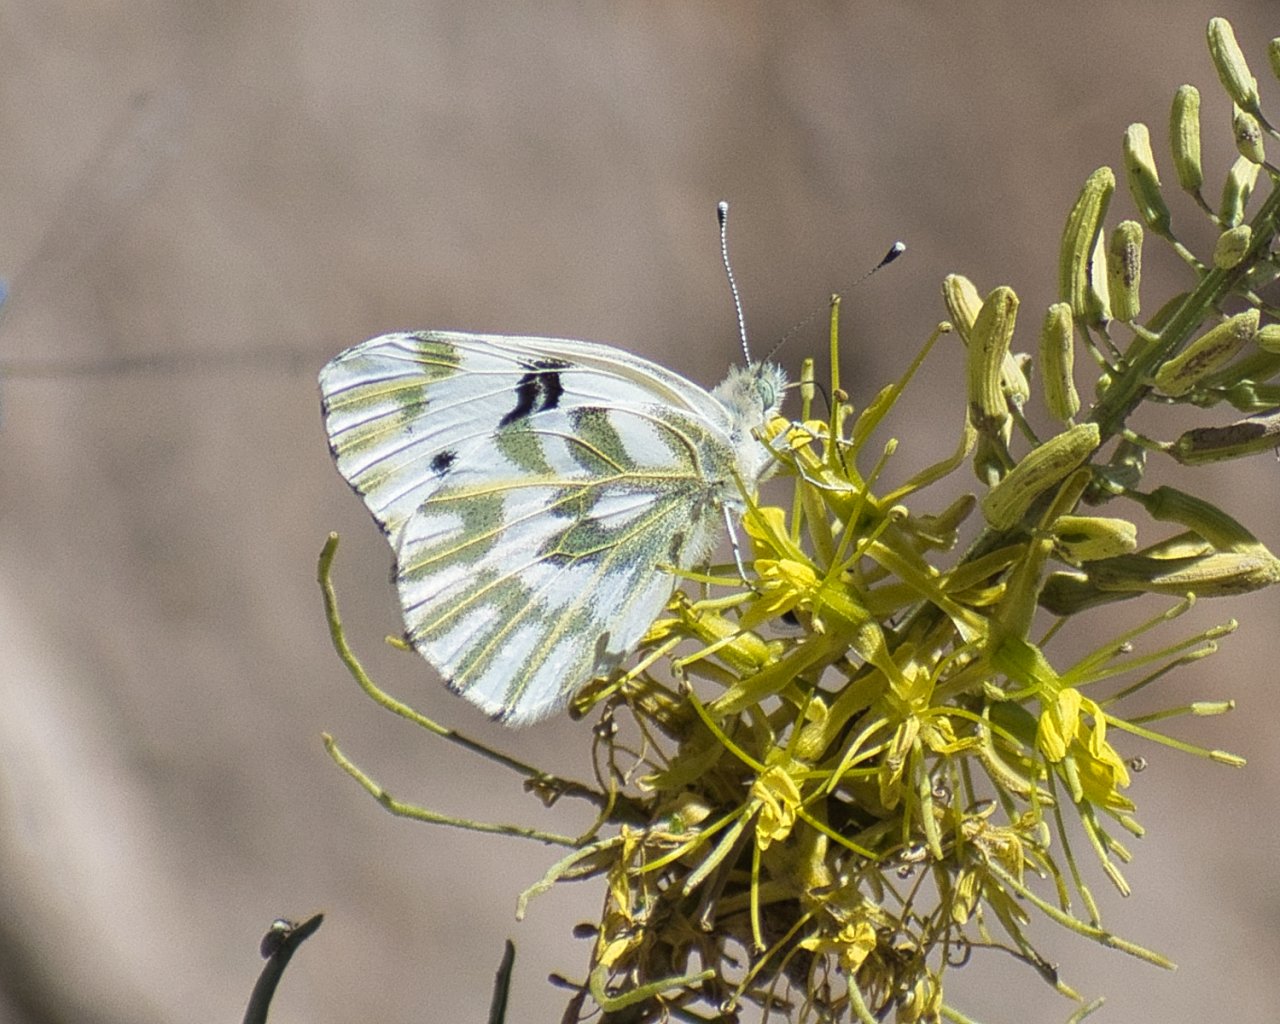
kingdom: Animalia
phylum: Arthropoda
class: Insecta
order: Lepidoptera
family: Pieridae
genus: Pontia
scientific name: Pontia beckerii
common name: Becker's White
